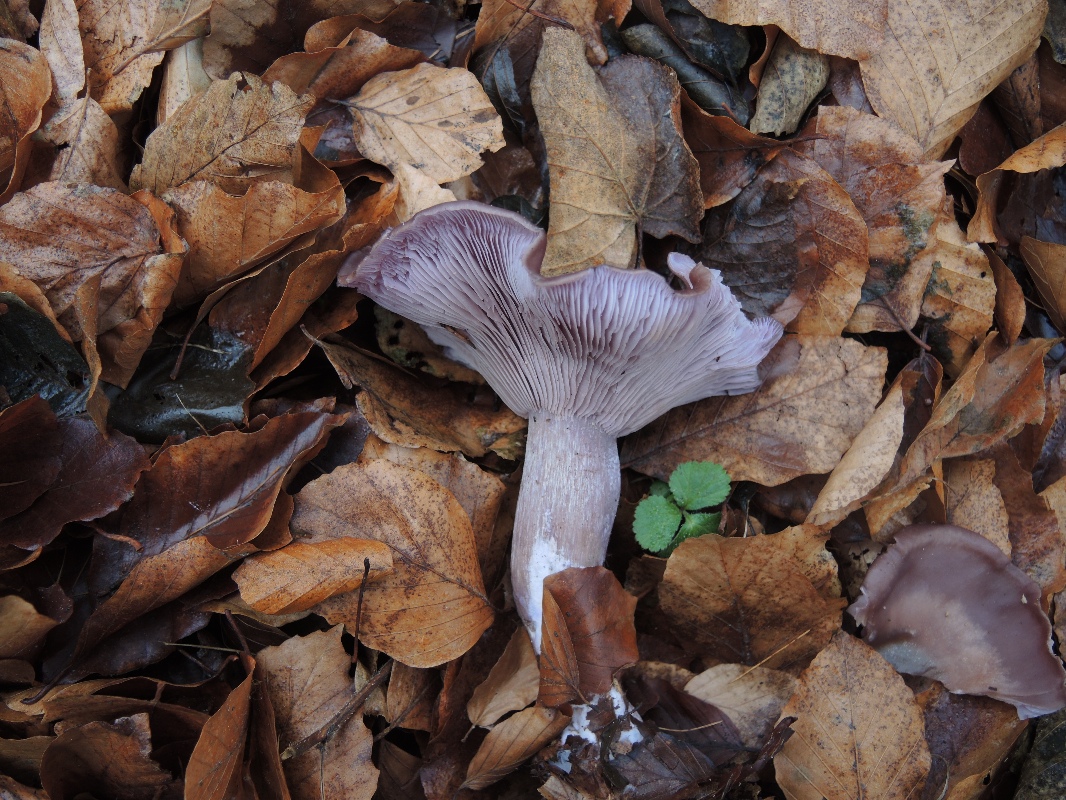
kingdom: Fungi
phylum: Basidiomycota
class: Agaricomycetes
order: Agaricales
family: Tricholomataceae
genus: Lepista
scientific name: Lepista nuda
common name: violet hekseringshat
